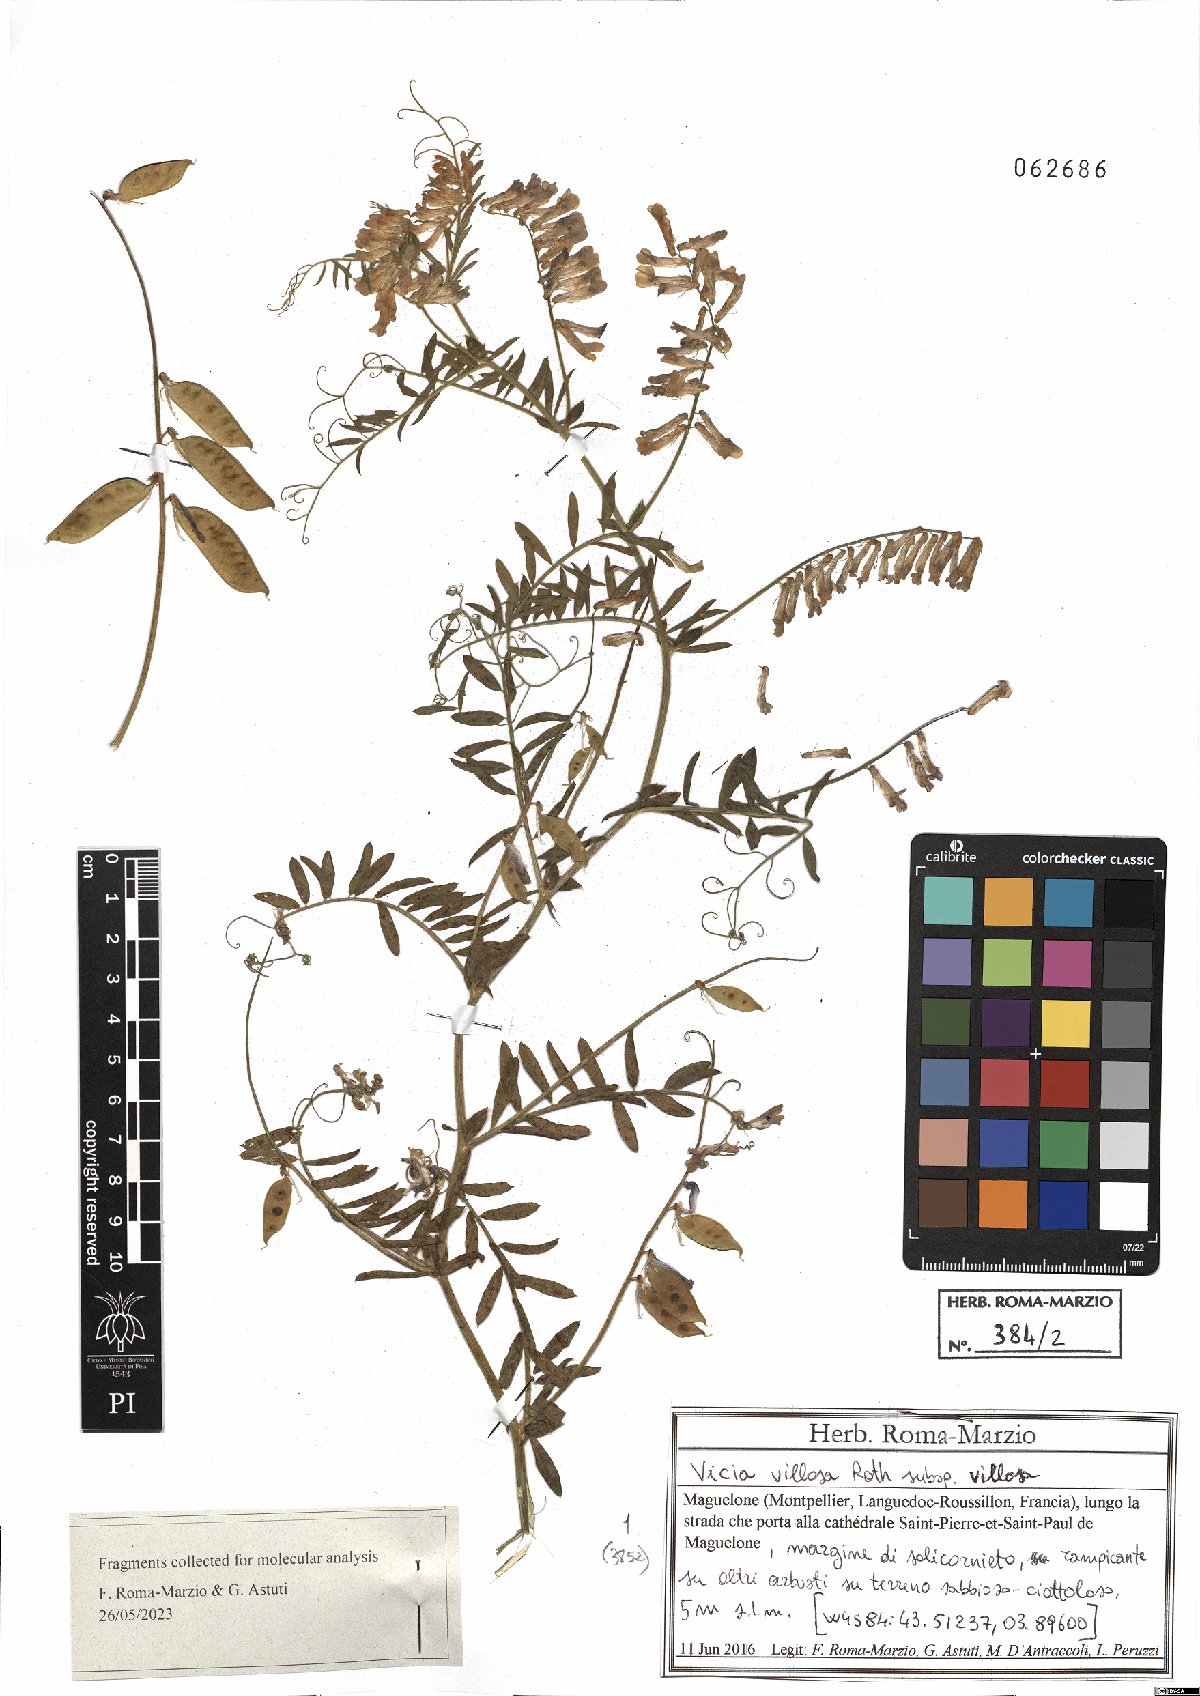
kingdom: Plantae
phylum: Tracheophyta
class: Magnoliopsida
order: Fabales
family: Fabaceae
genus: Vicia
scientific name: Vicia villosa
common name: Fodder vetch
